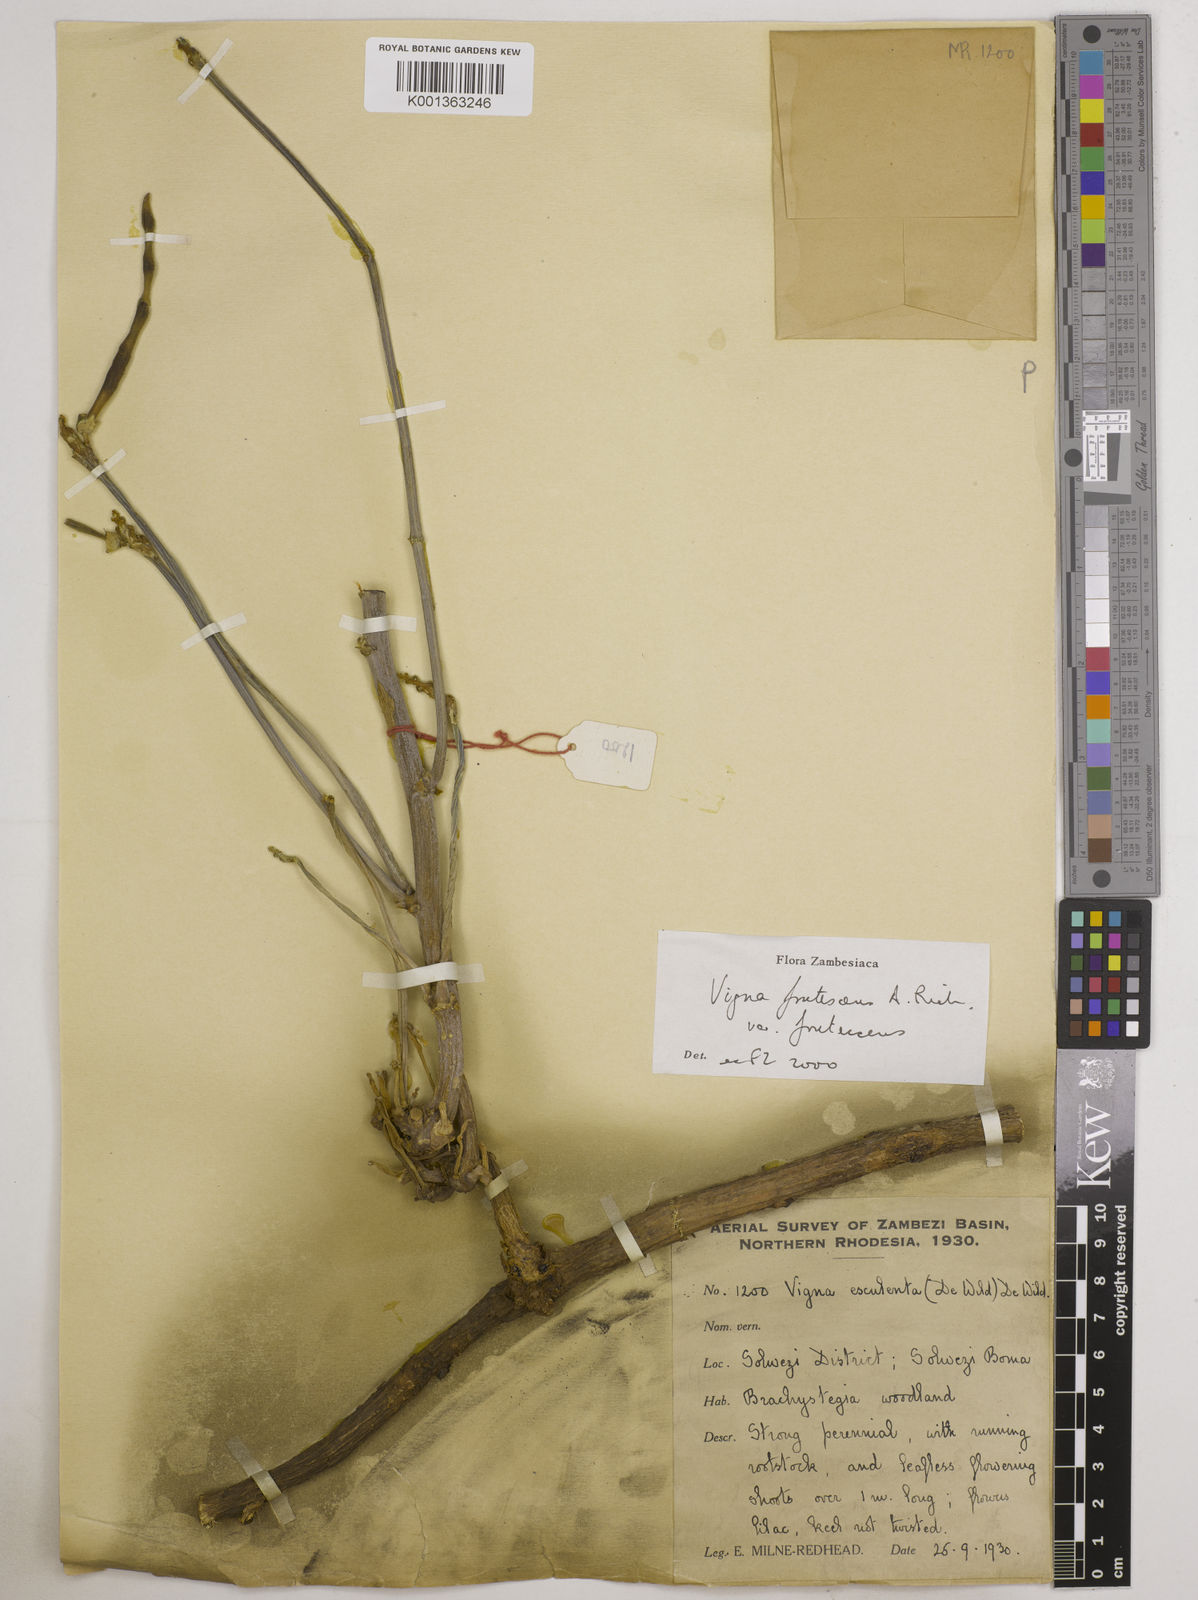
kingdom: Plantae
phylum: Tracheophyta
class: Magnoliopsida
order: Fabales
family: Fabaceae
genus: Vigna
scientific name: Vigna frutescens
